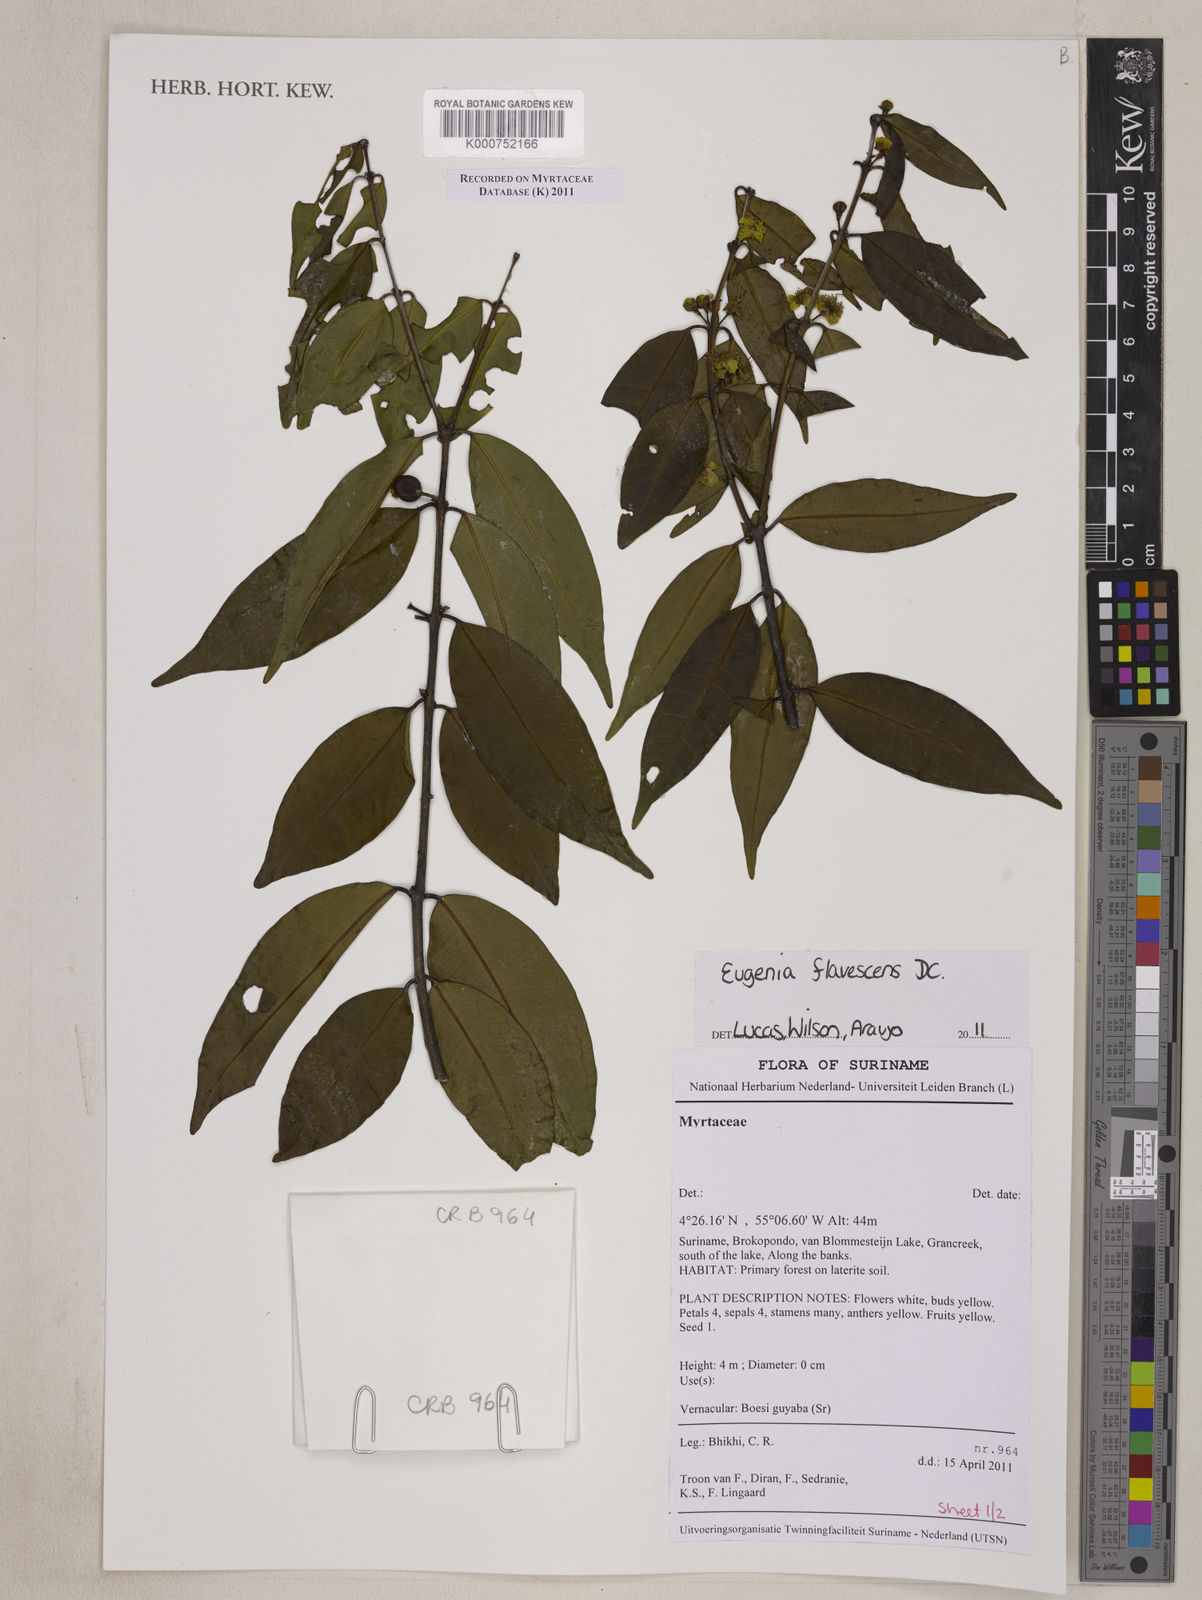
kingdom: Plantae
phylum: Tracheophyta
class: Magnoliopsida
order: Myrtales
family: Myrtaceae
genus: Eugenia
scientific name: Eugenia flavescens
